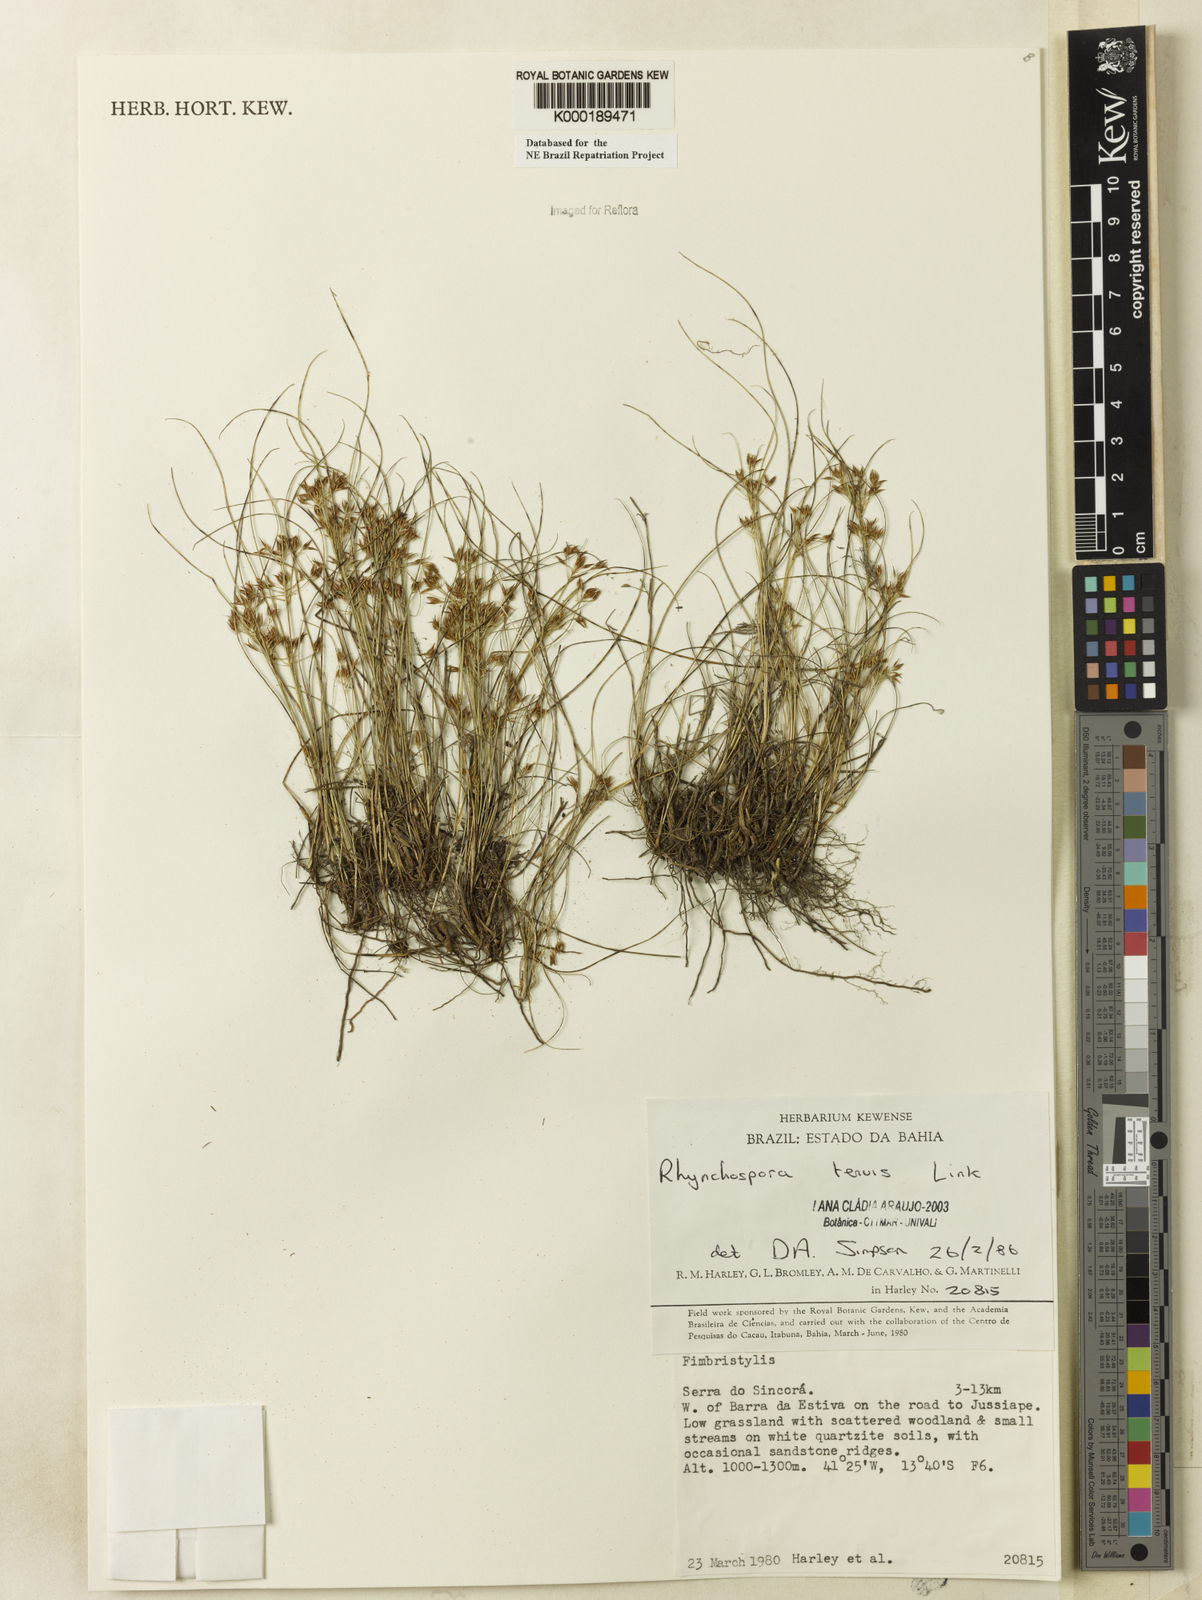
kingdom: Plantae
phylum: Tracheophyta
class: Liliopsida
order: Poales
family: Cyperaceae
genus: Rhynchospora
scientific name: Rhynchospora tenuis
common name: Quill beaksedge
